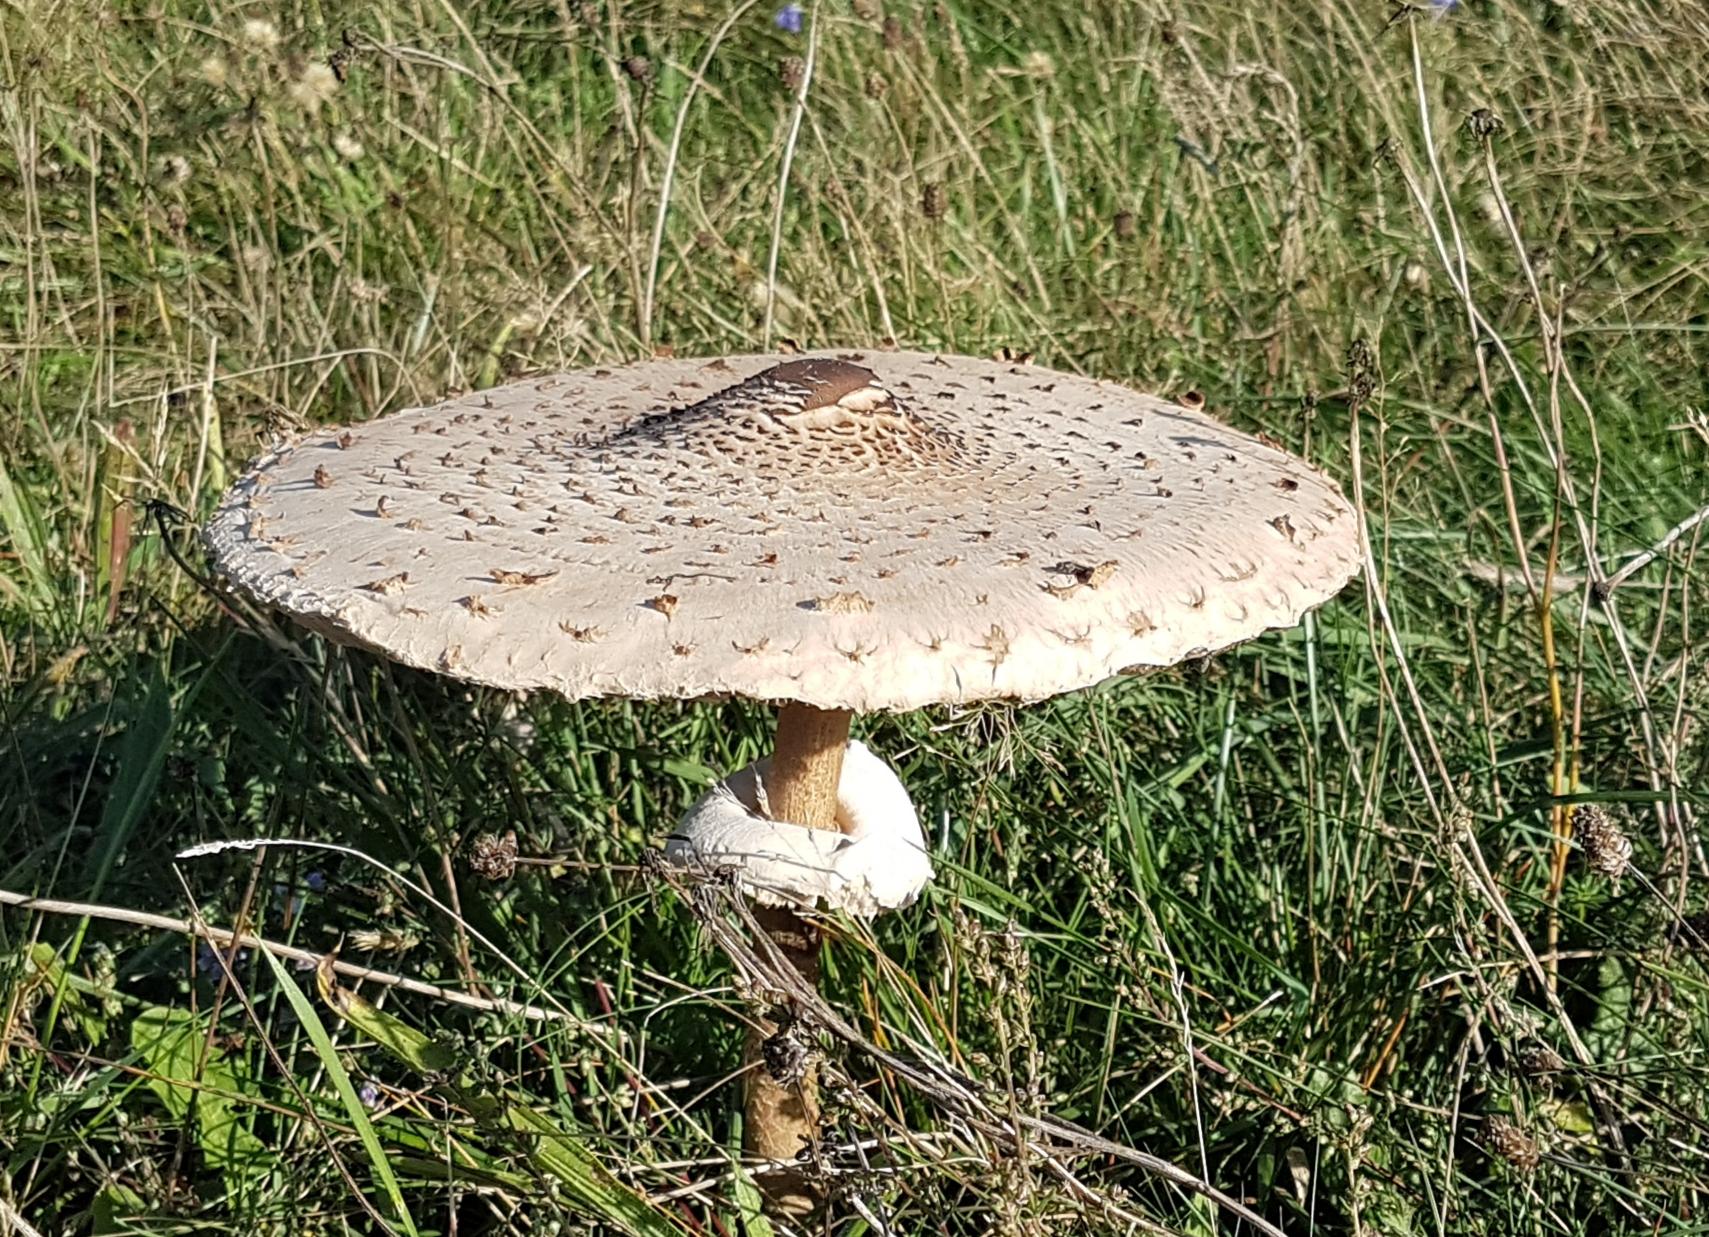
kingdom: Fungi
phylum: Basidiomycota
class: Agaricomycetes
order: Agaricales
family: Agaricaceae
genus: Macrolepiota
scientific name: Macrolepiota procera
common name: stor kæmpeparasolhat
